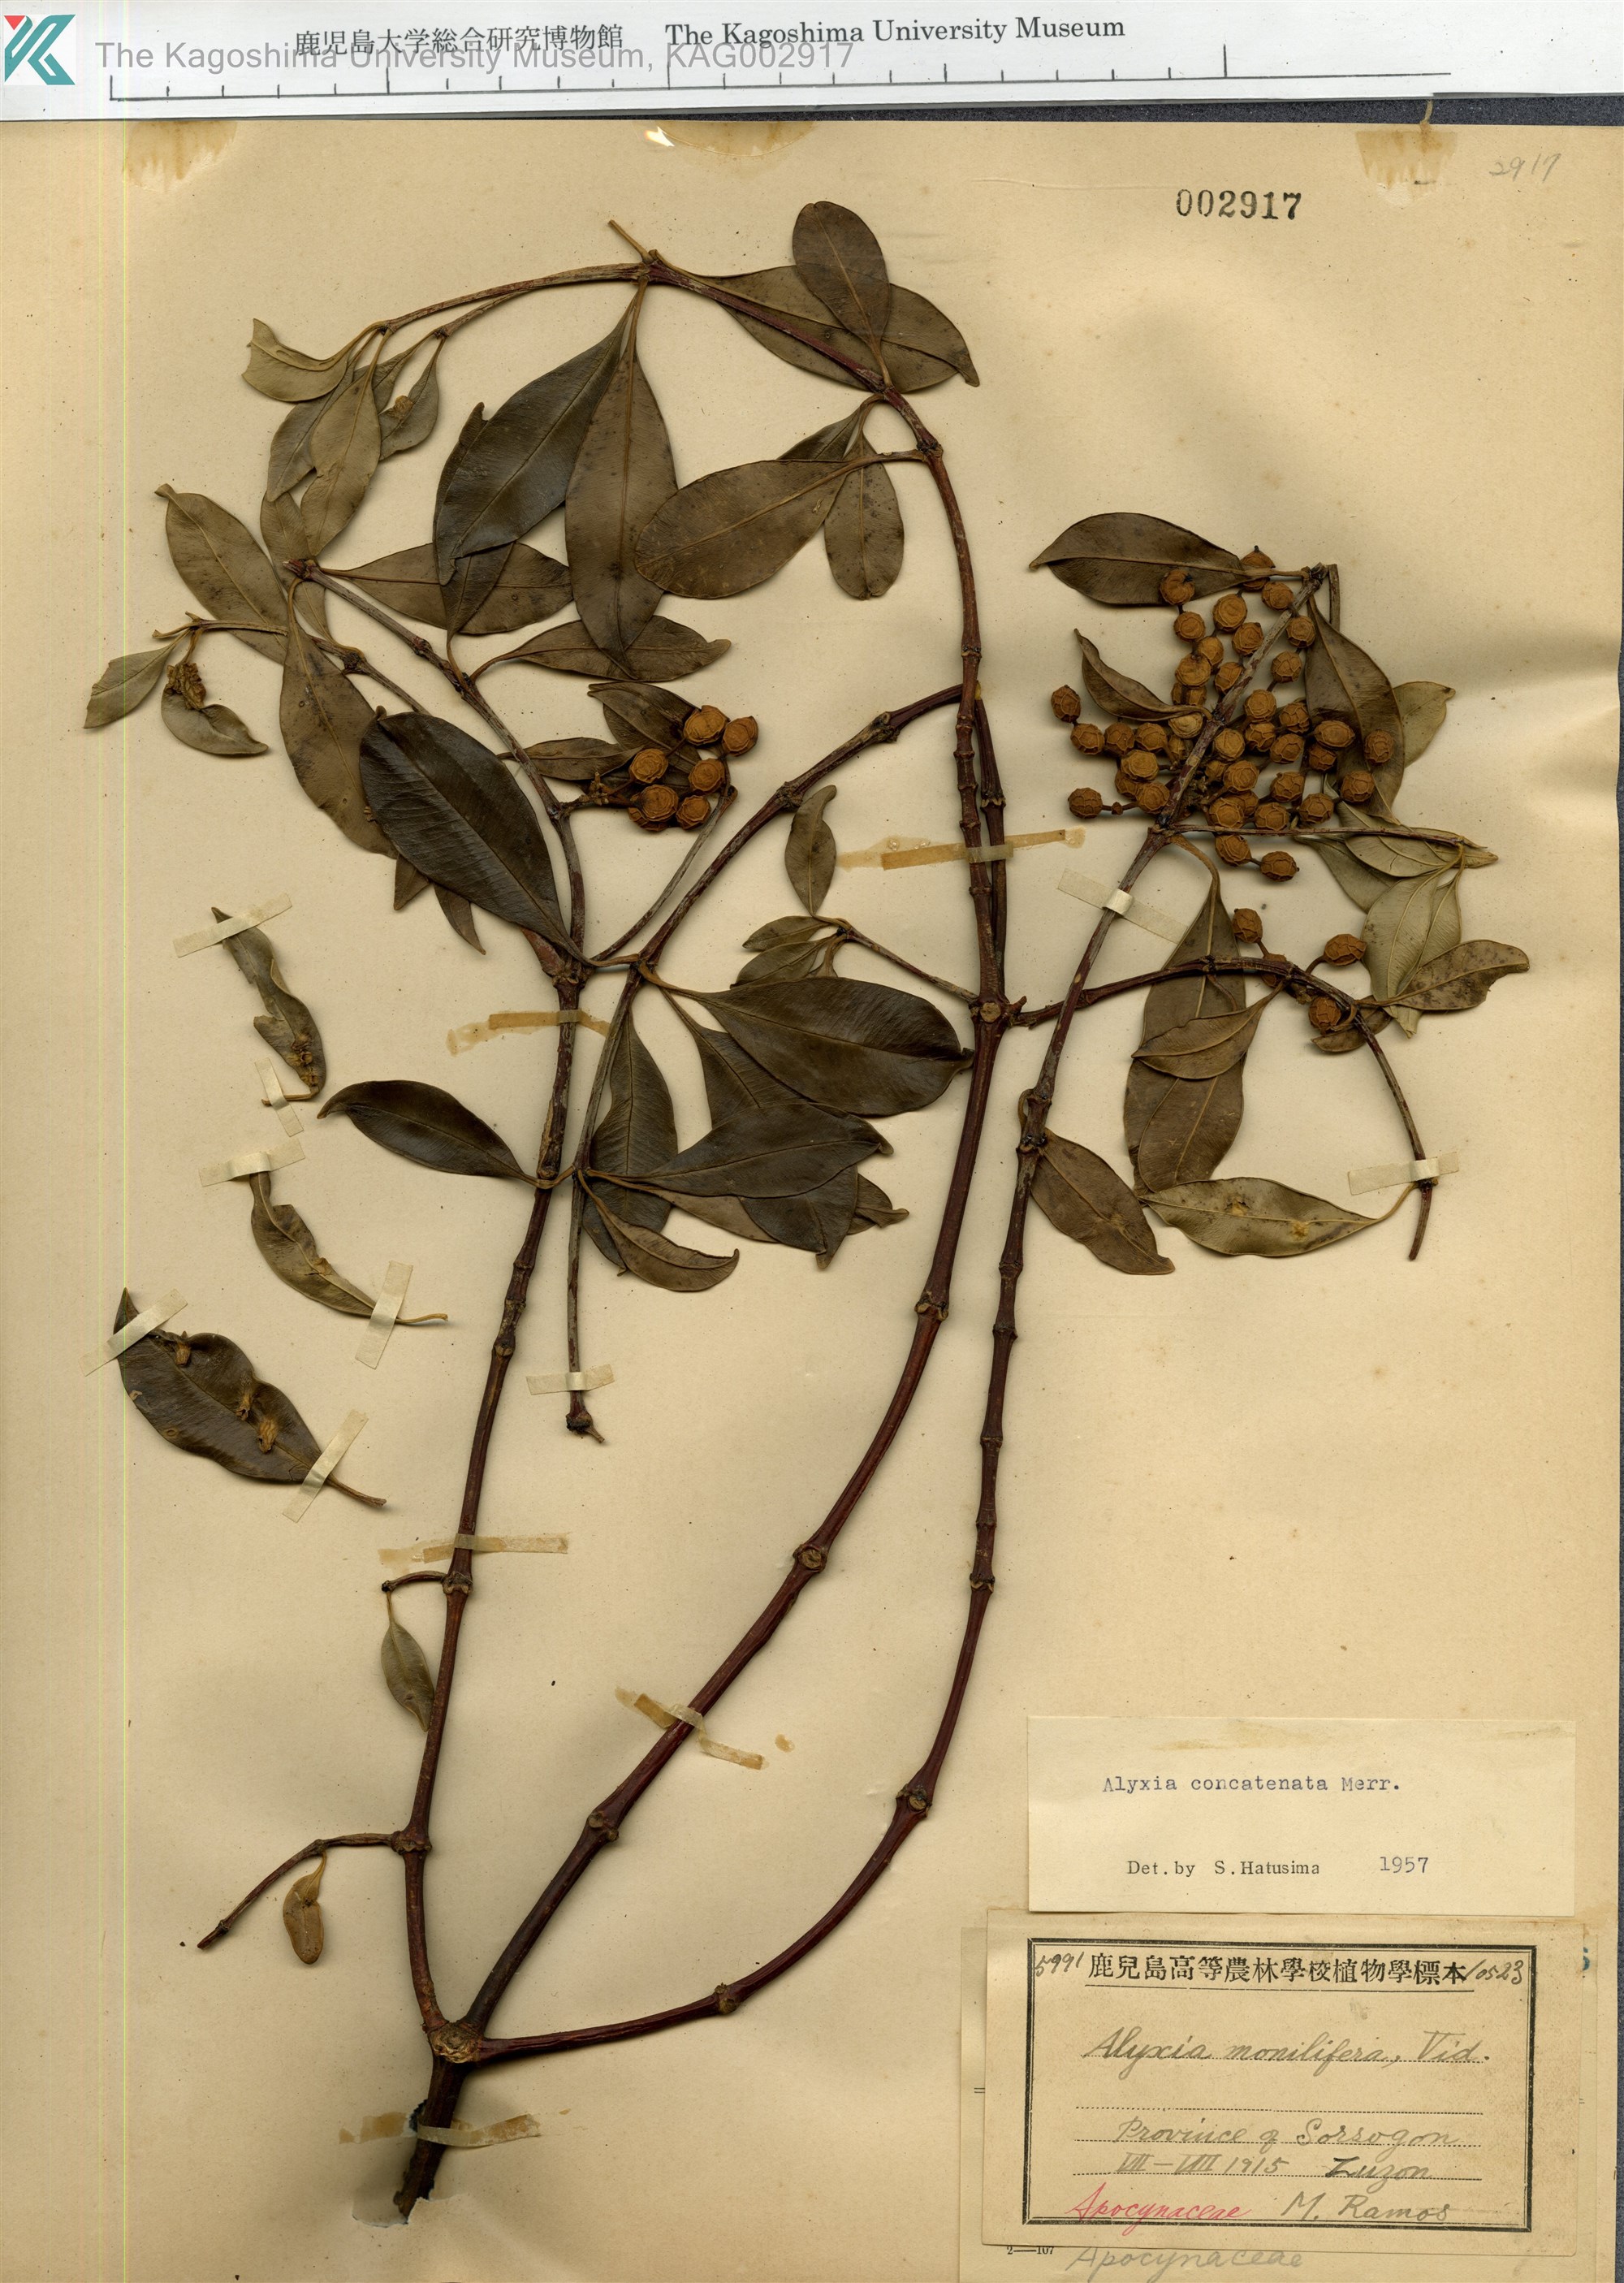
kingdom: Plantae
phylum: Tracheophyta
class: Magnoliopsida
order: Gentianales
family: Apocynaceae
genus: Alyxia
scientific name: Alyxia concatenata
